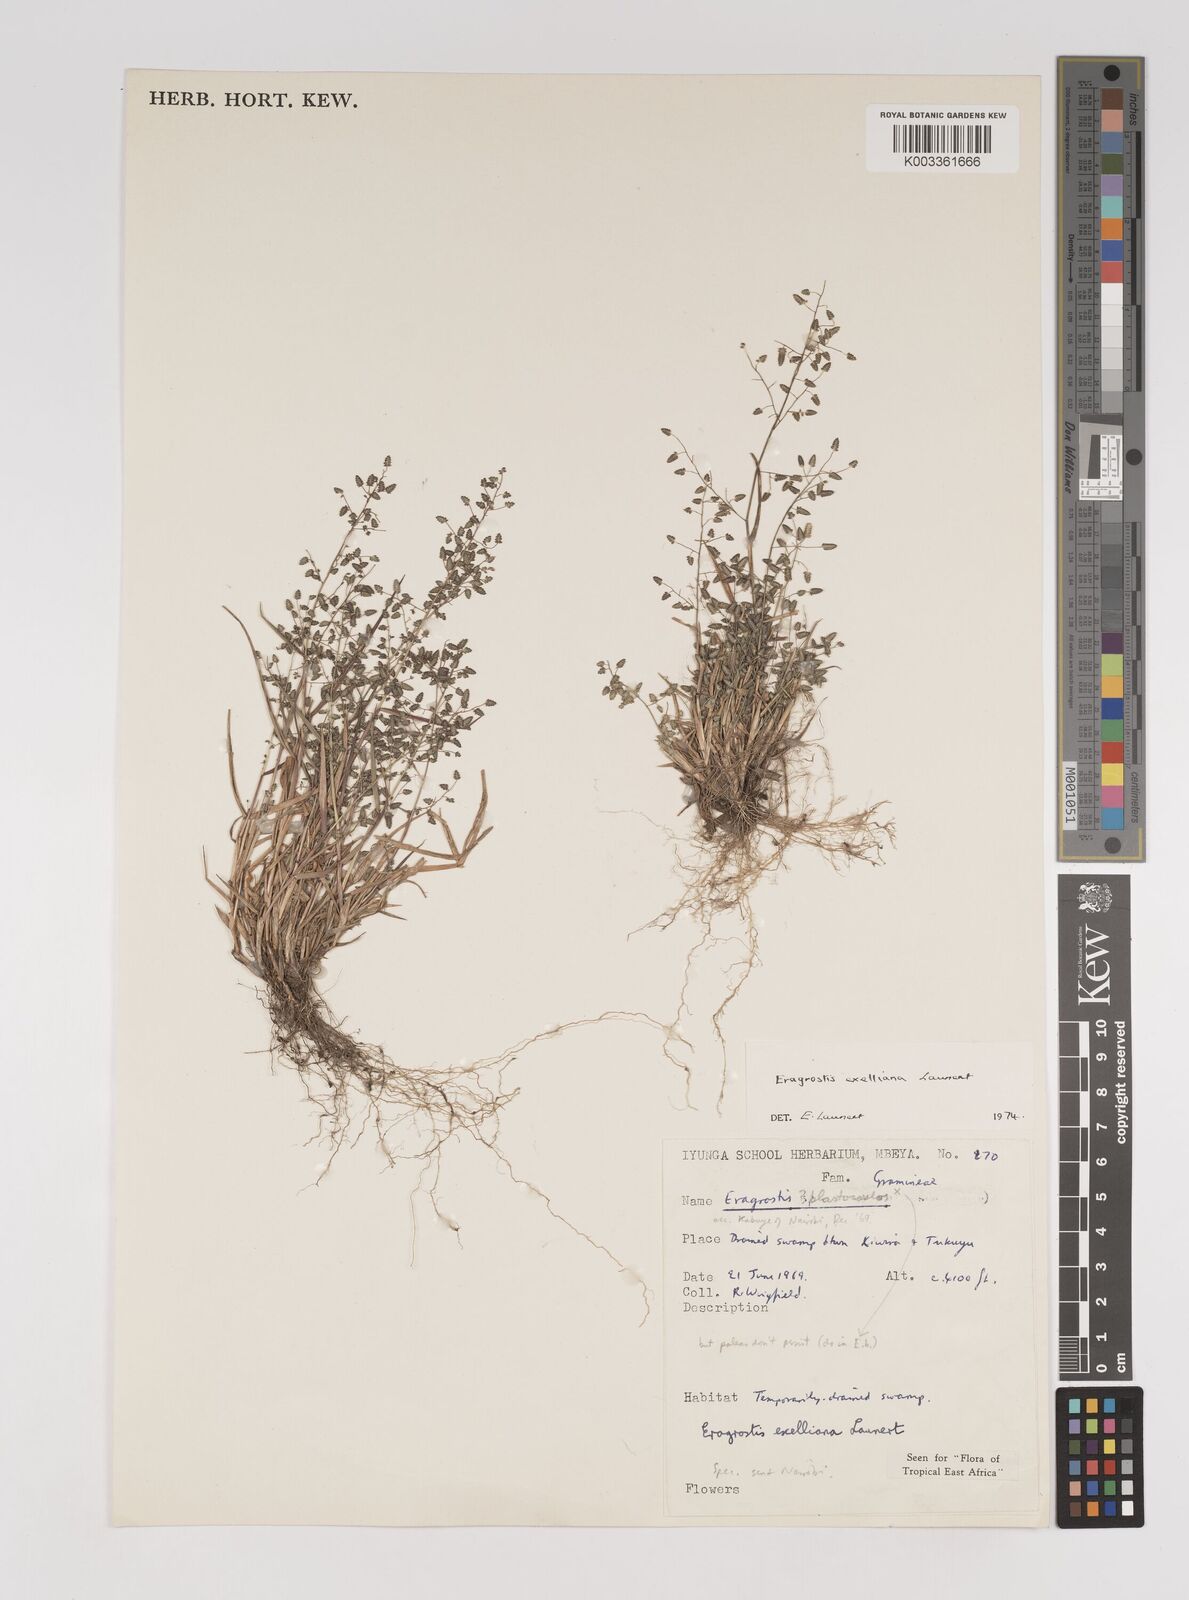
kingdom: Plantae
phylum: Tracheophyta
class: Liliopsida
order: Poales
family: Poaceae
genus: Eragrostis
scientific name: Eragrostis exelliana
